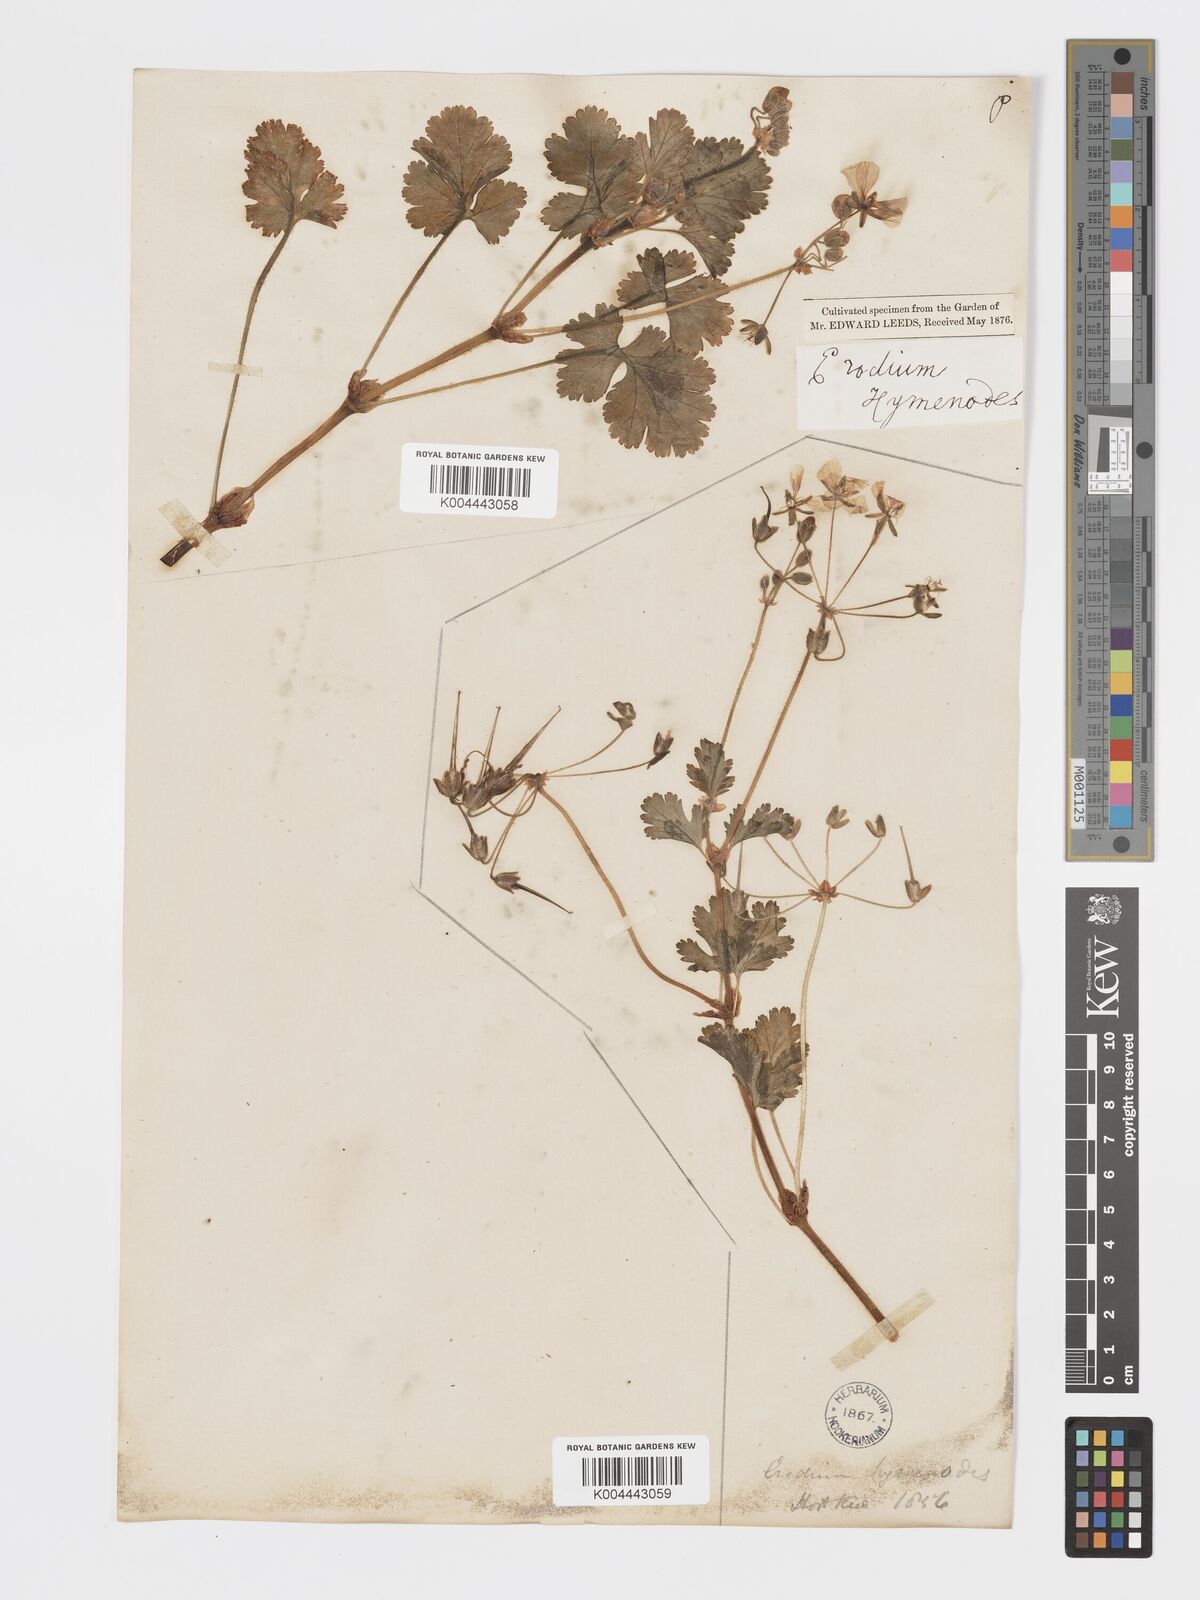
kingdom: Plantae
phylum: Tracheophyta
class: Magnoliopsida
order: Geraniales
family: Geraniaceae
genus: Erodium
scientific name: Erodium trifolium
